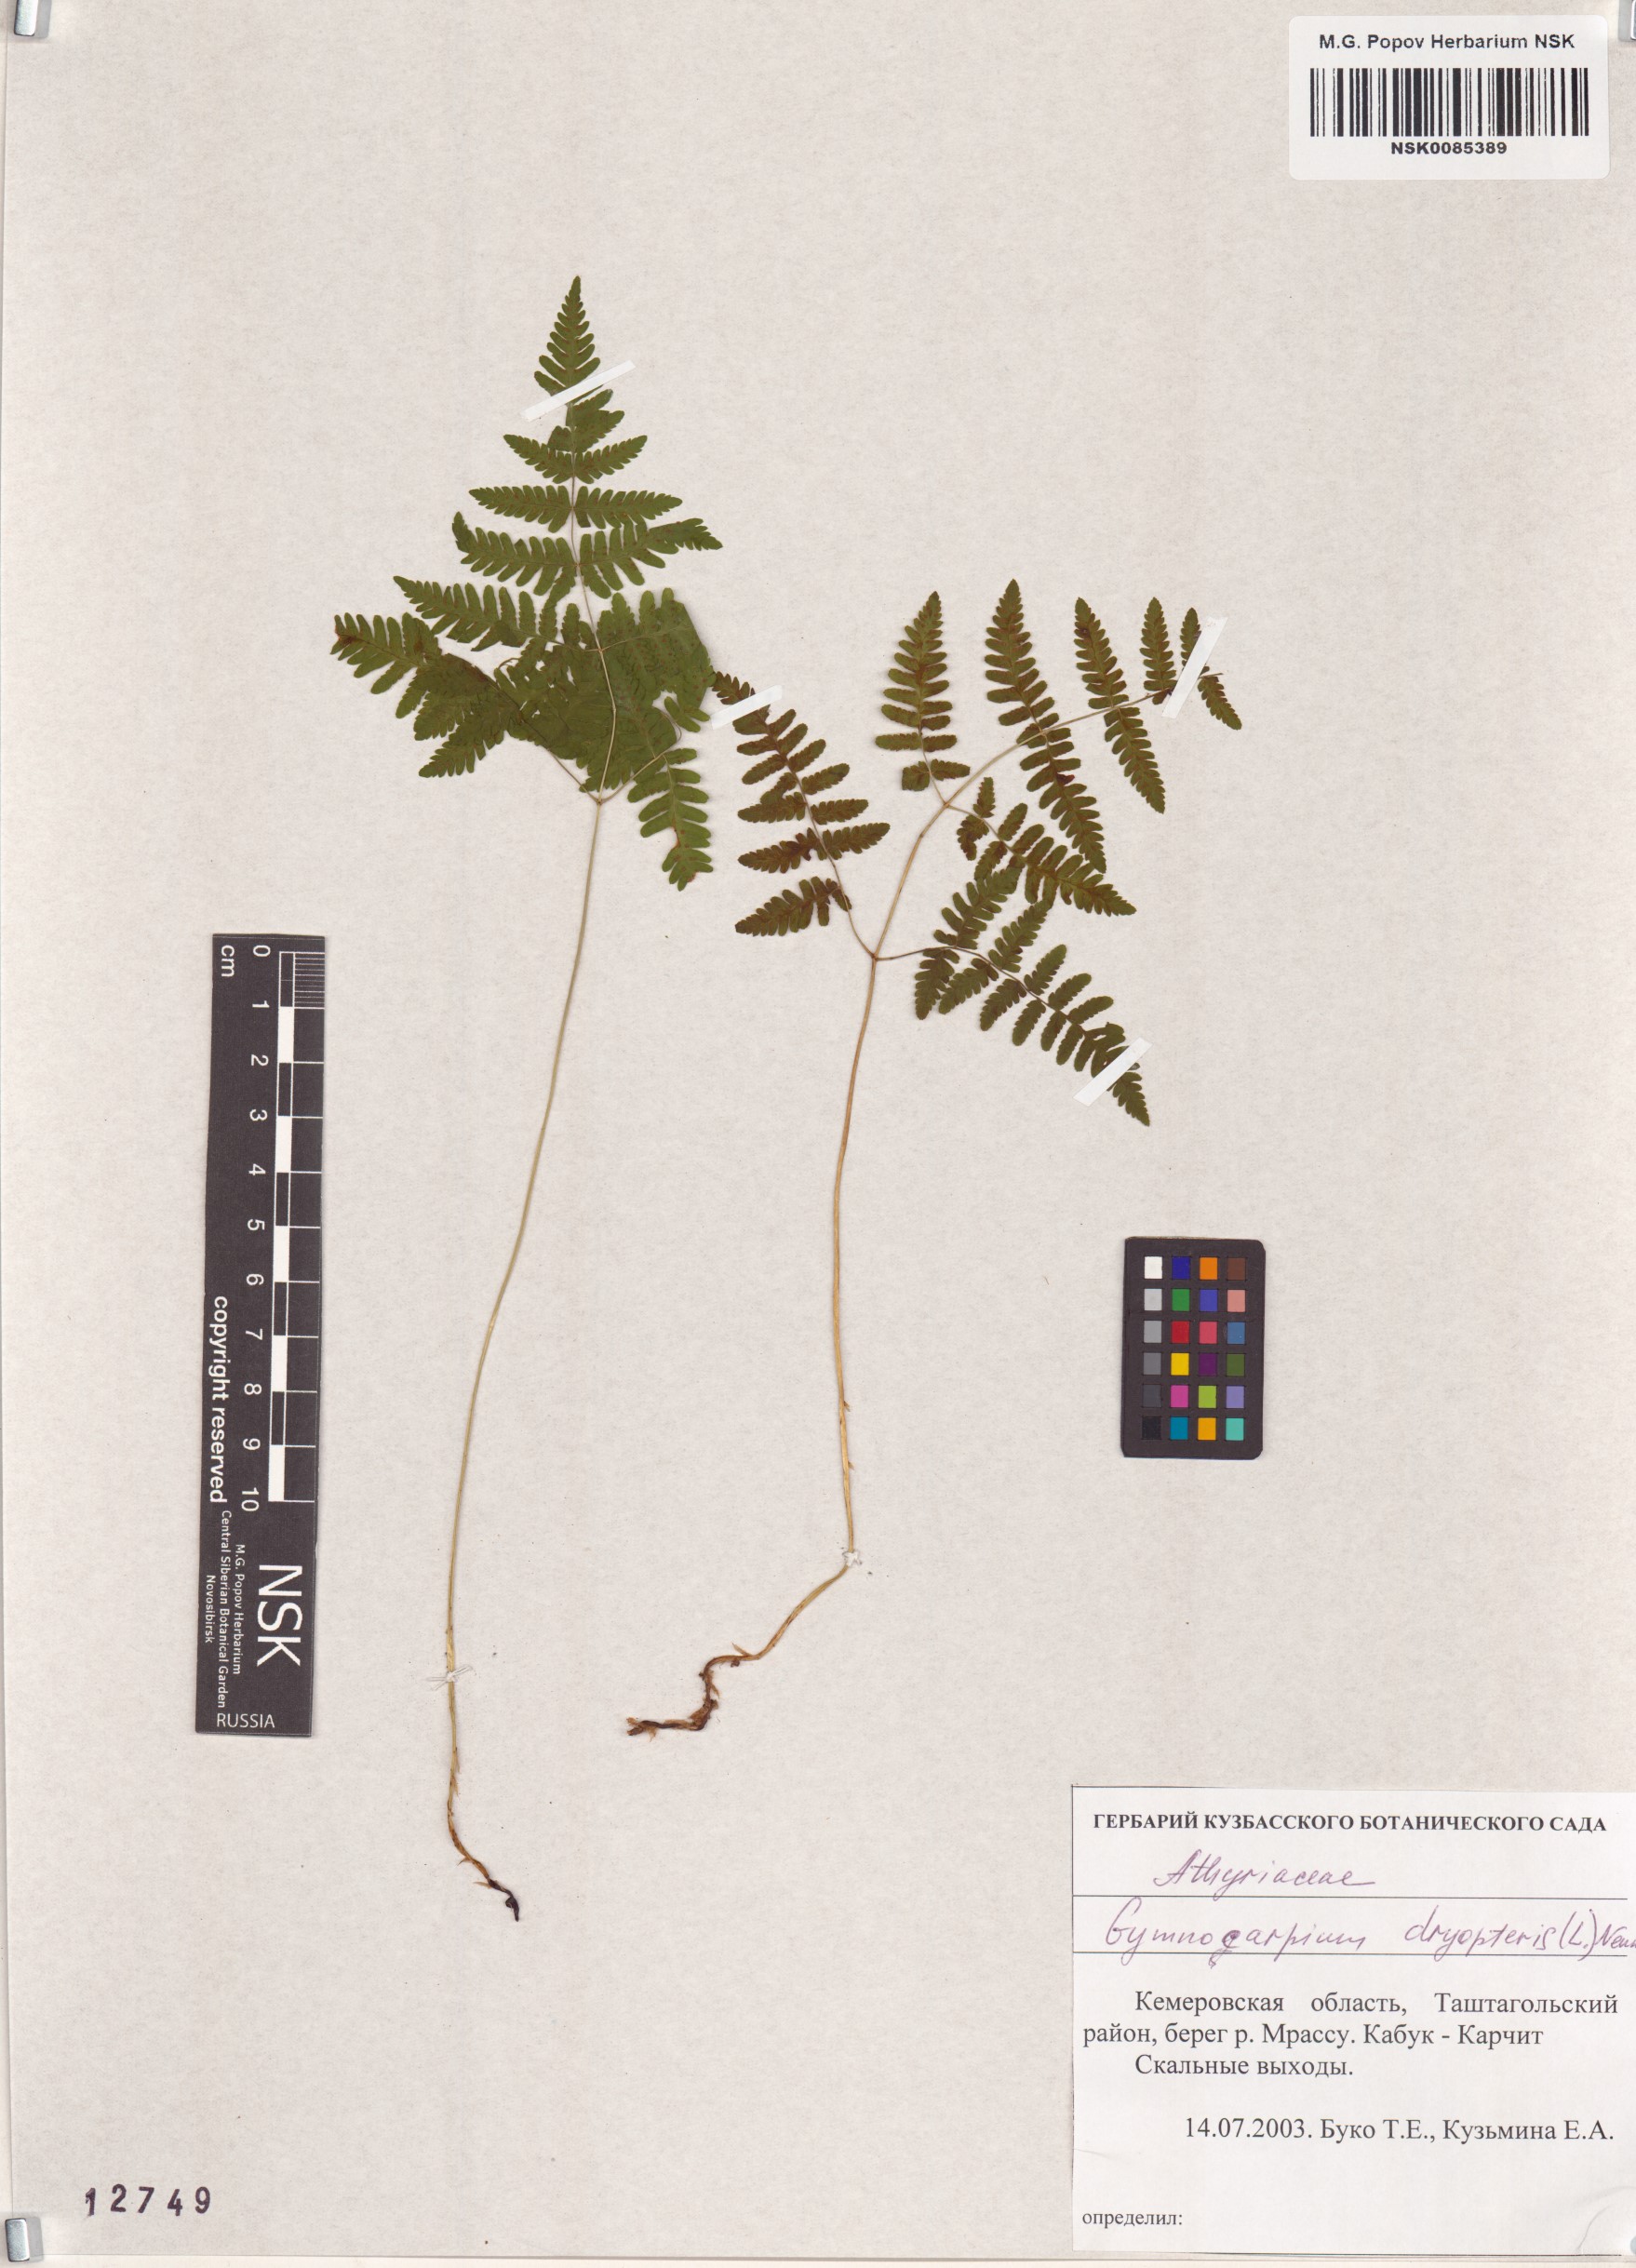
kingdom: Plantae
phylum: Tracheophyta
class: Polypodiopsida
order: Polypodiales
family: Cystopteridaceae
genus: Gymnocarpium
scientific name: Gymnocarpium dryopteris
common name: Oak fern
